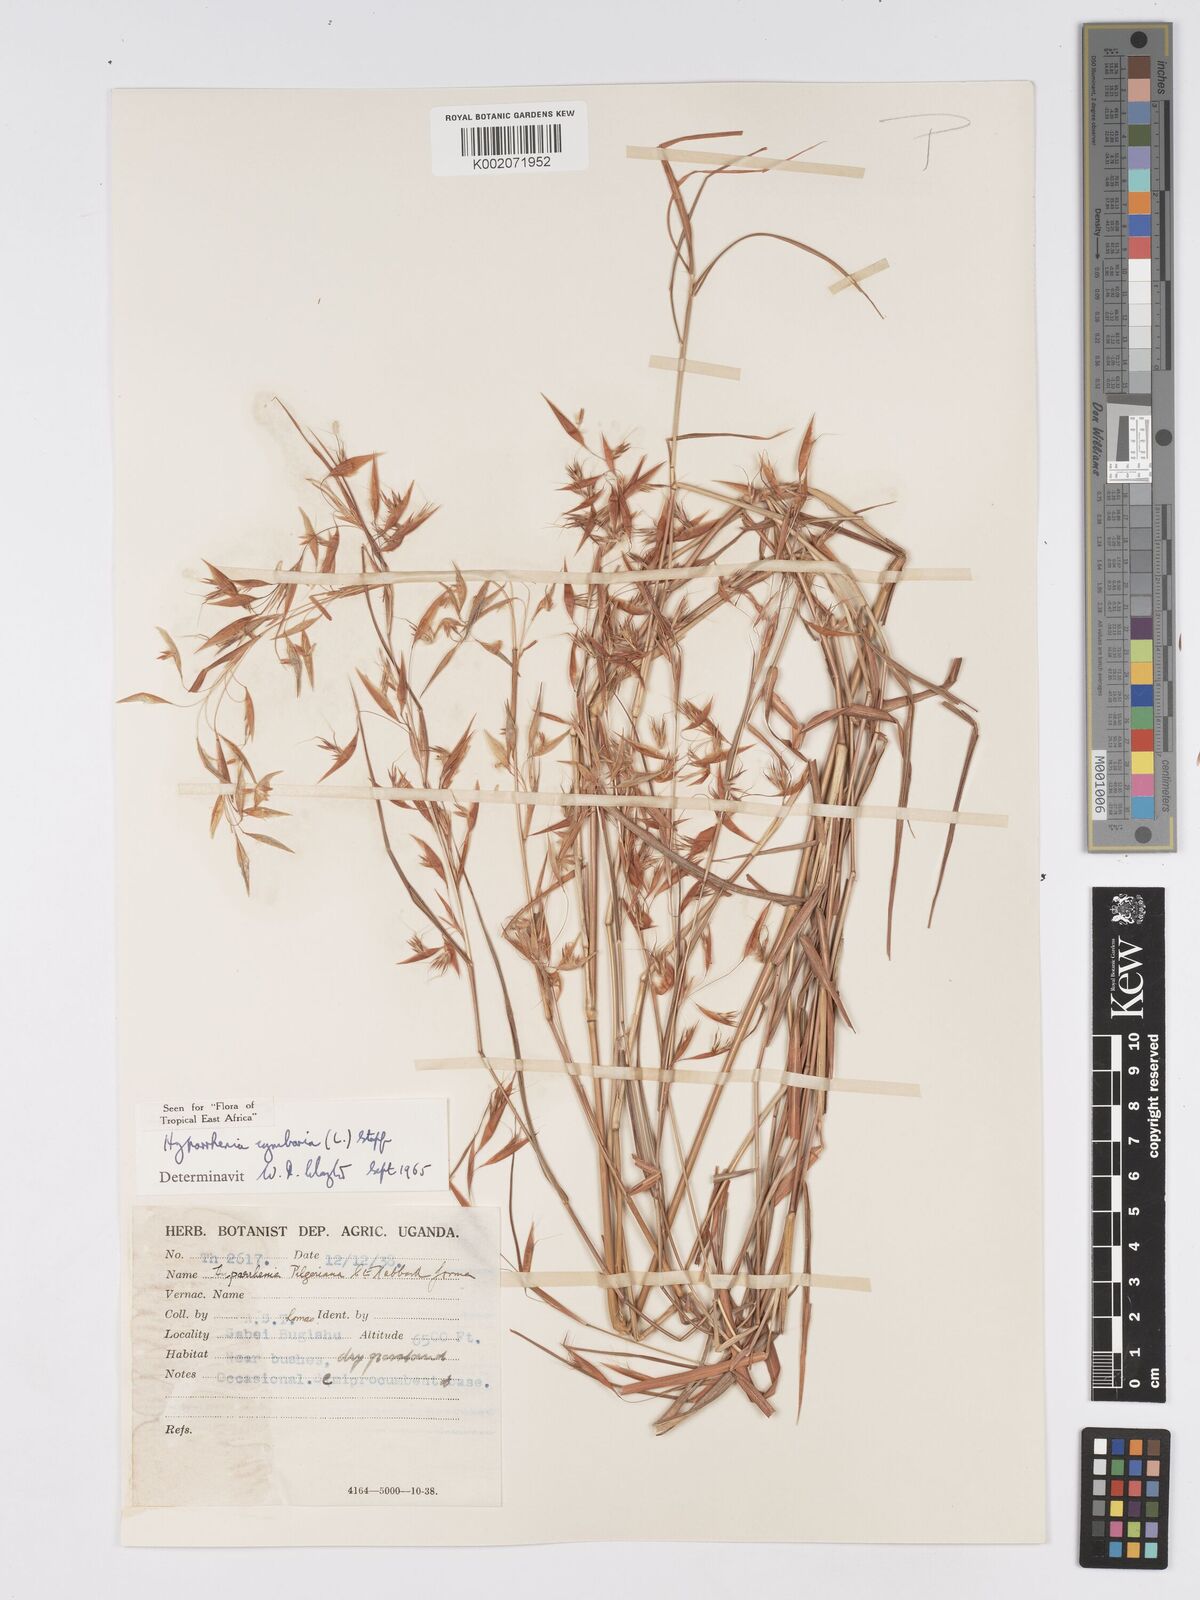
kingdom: Plantae
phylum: Tracheophyta
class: Liliopsida
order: Poales
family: Poaceae
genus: Hyparrhenia
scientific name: Hyparrhenia cymbaria
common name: Boat thatching grass
